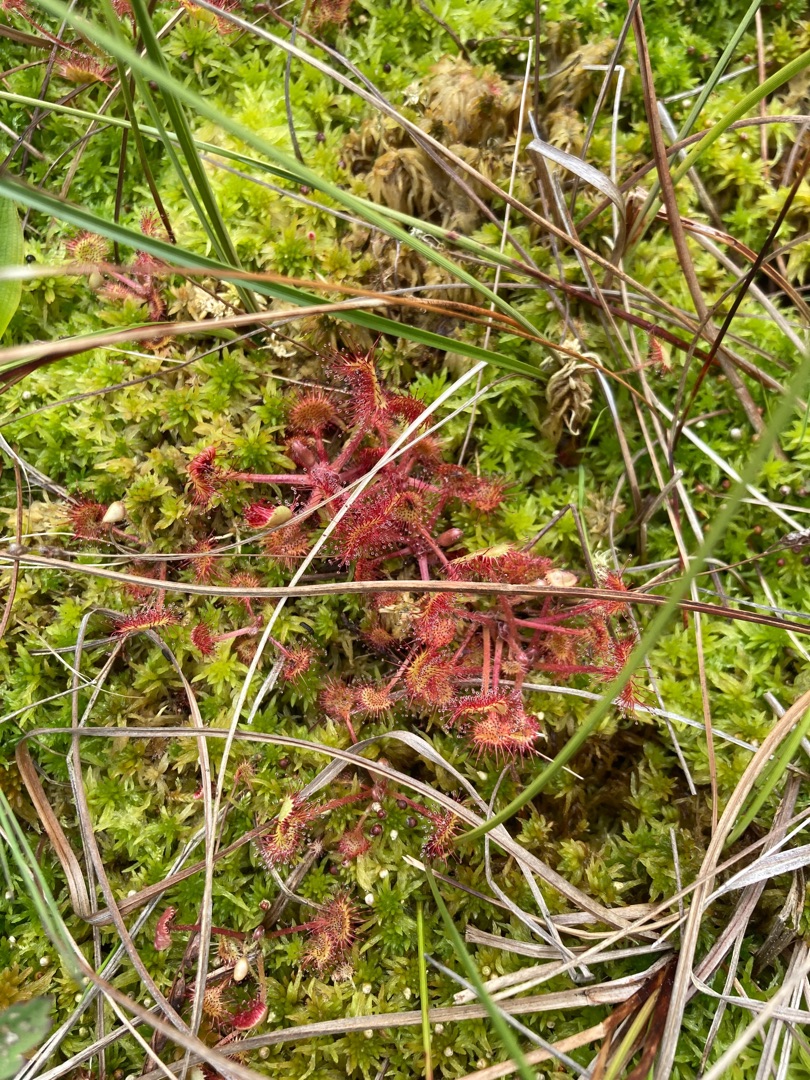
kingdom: Plantae
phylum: Tracheophyta
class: Magnoliopsida
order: Caryophyllales
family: Droseraceae
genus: Drosera
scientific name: Drosera rotundifolia
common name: Rundbladet soldug
